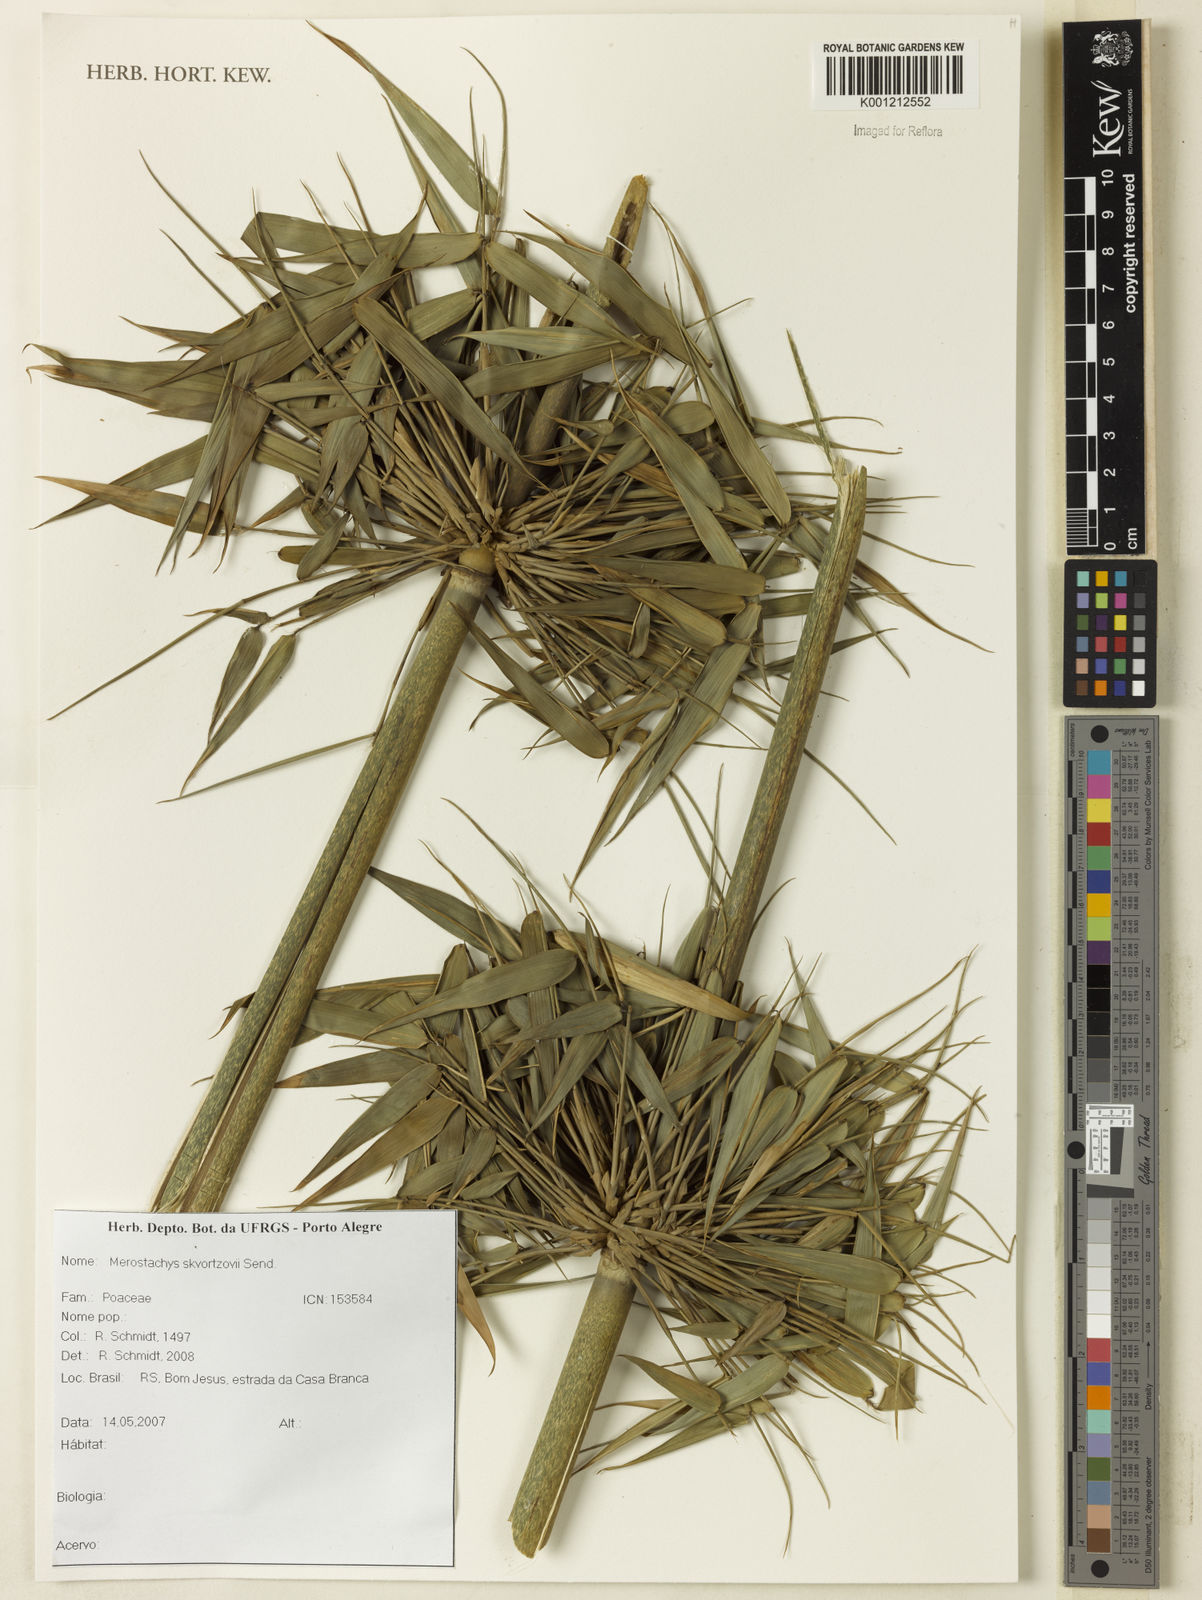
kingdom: Plantae
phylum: Tracheophyta
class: Liliopsida
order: Poales
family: Poaceae
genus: Merostachys
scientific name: Merostachys skvortzovii
